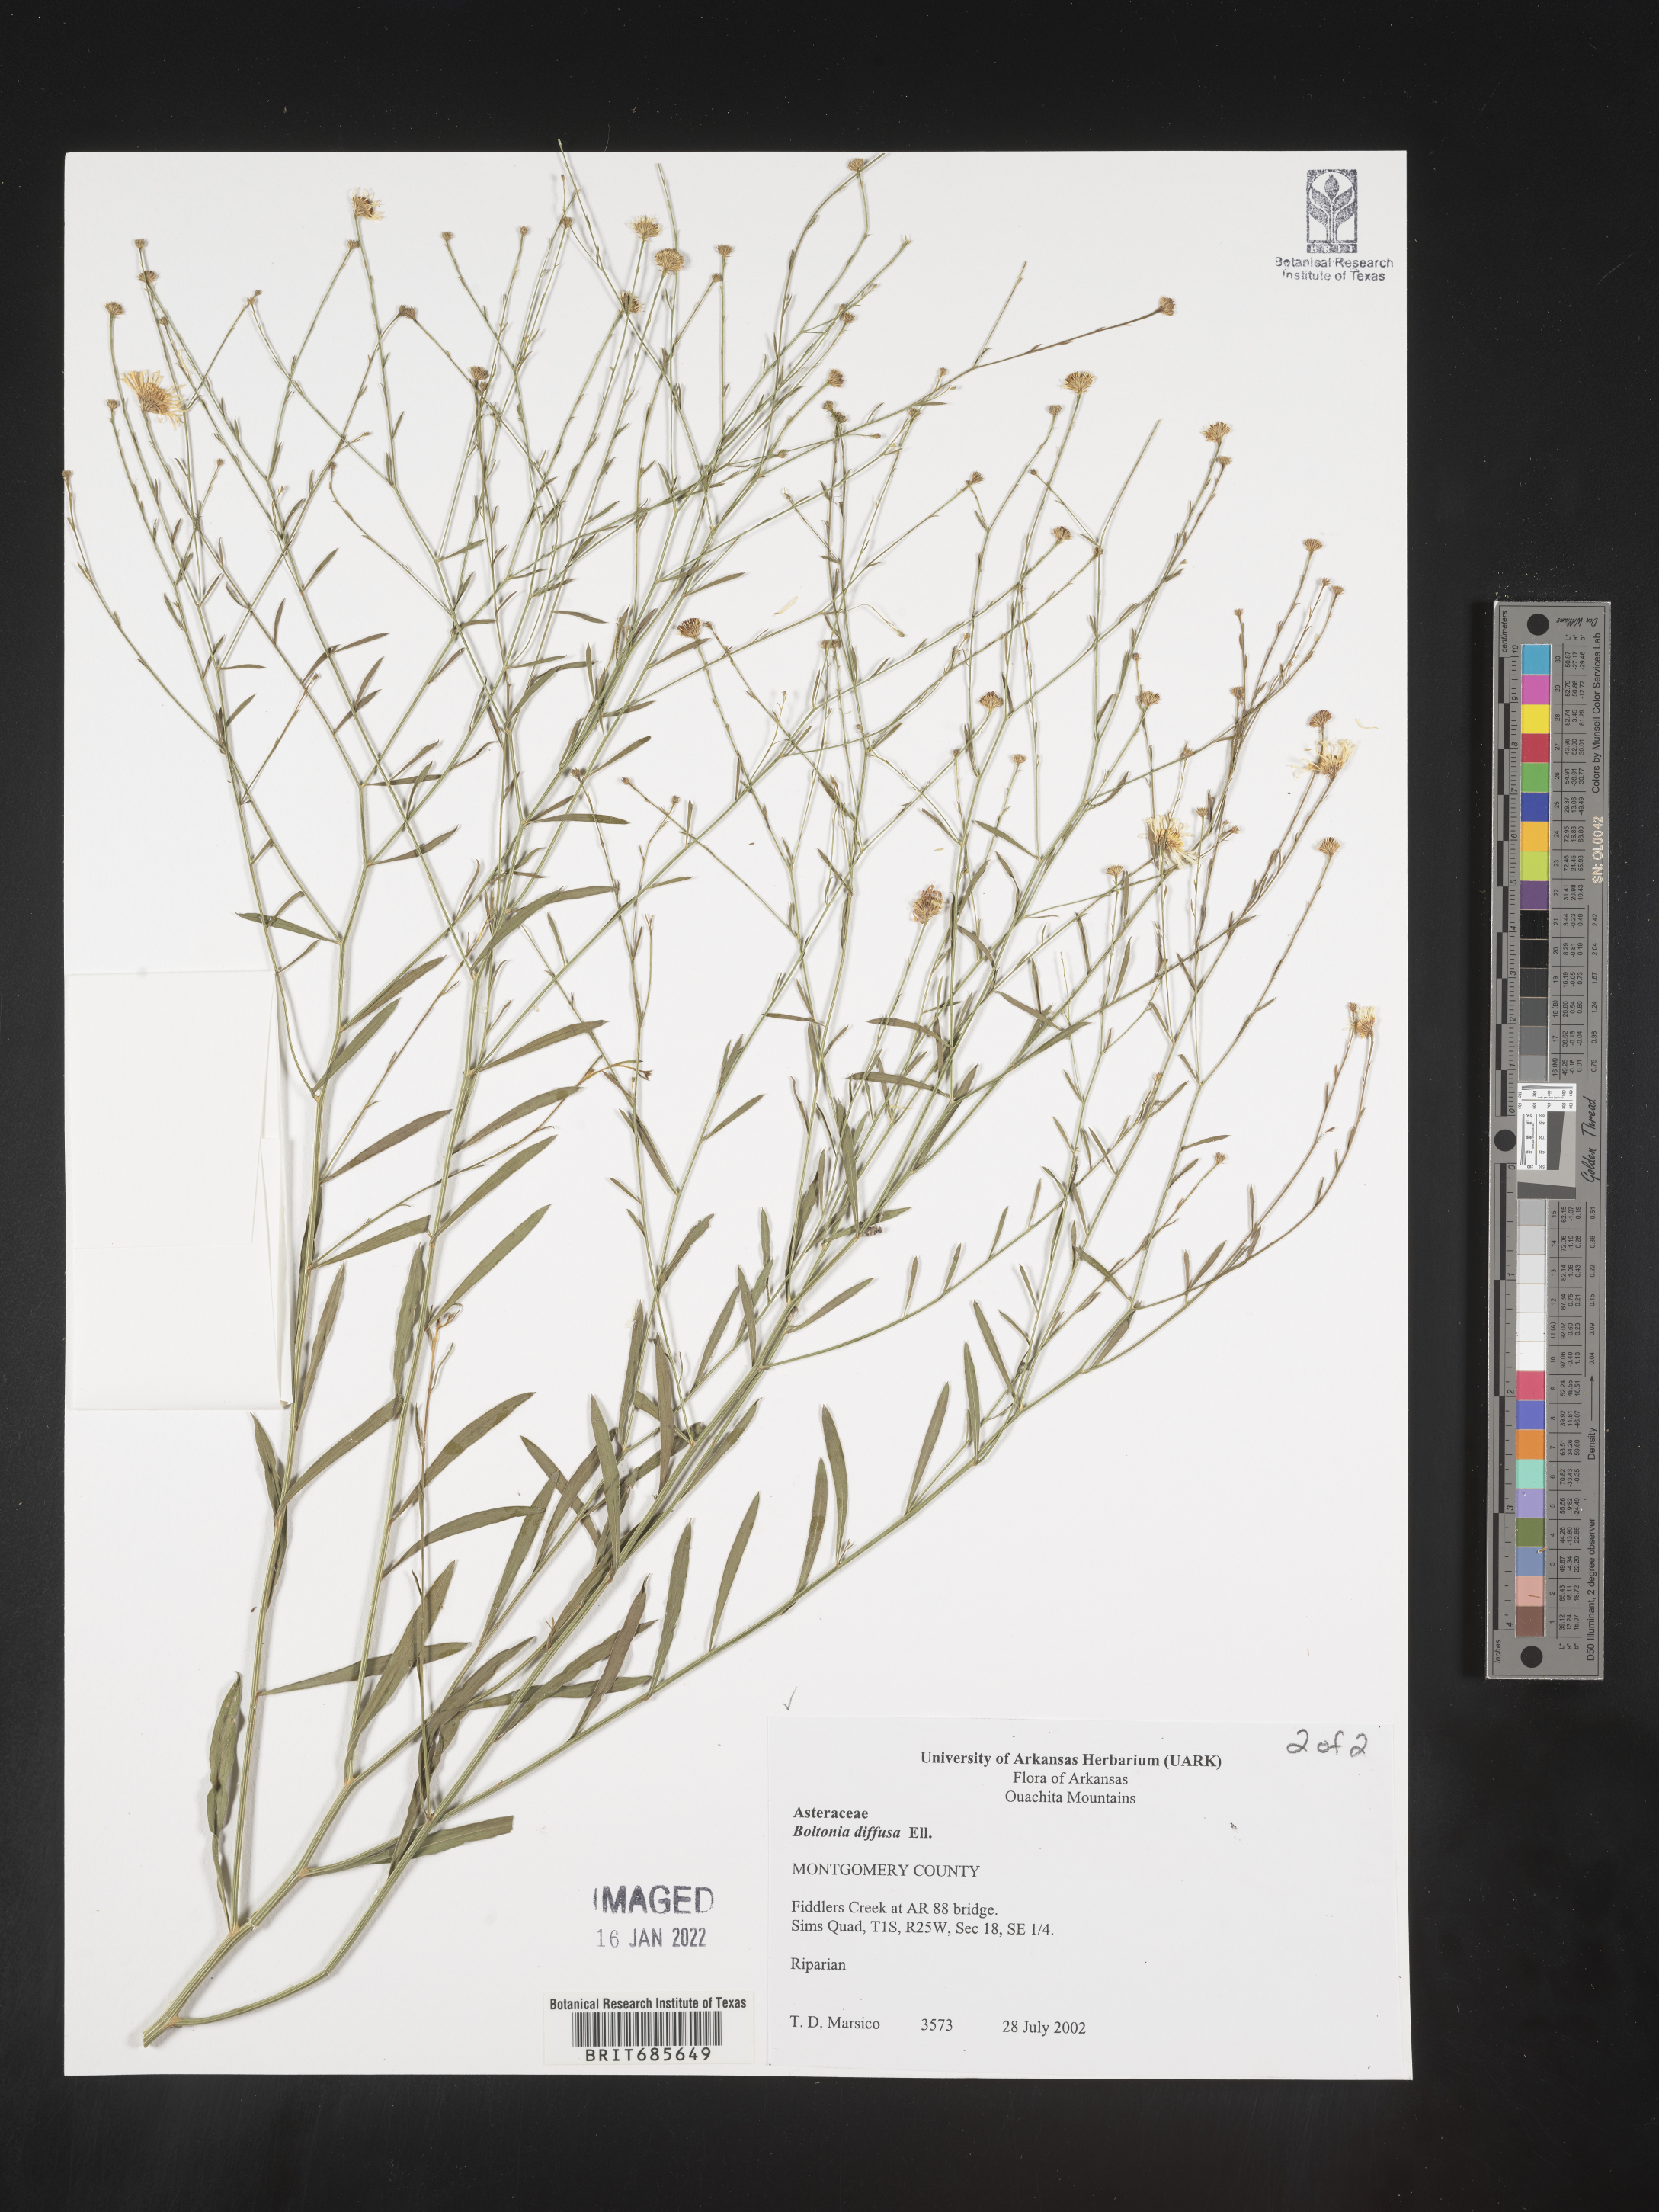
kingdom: Plantae
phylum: Tracheophyta
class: Magnoliopsida
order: Asterales
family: Asteraceae
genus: Boltonia
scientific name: Boltonia diffusa
